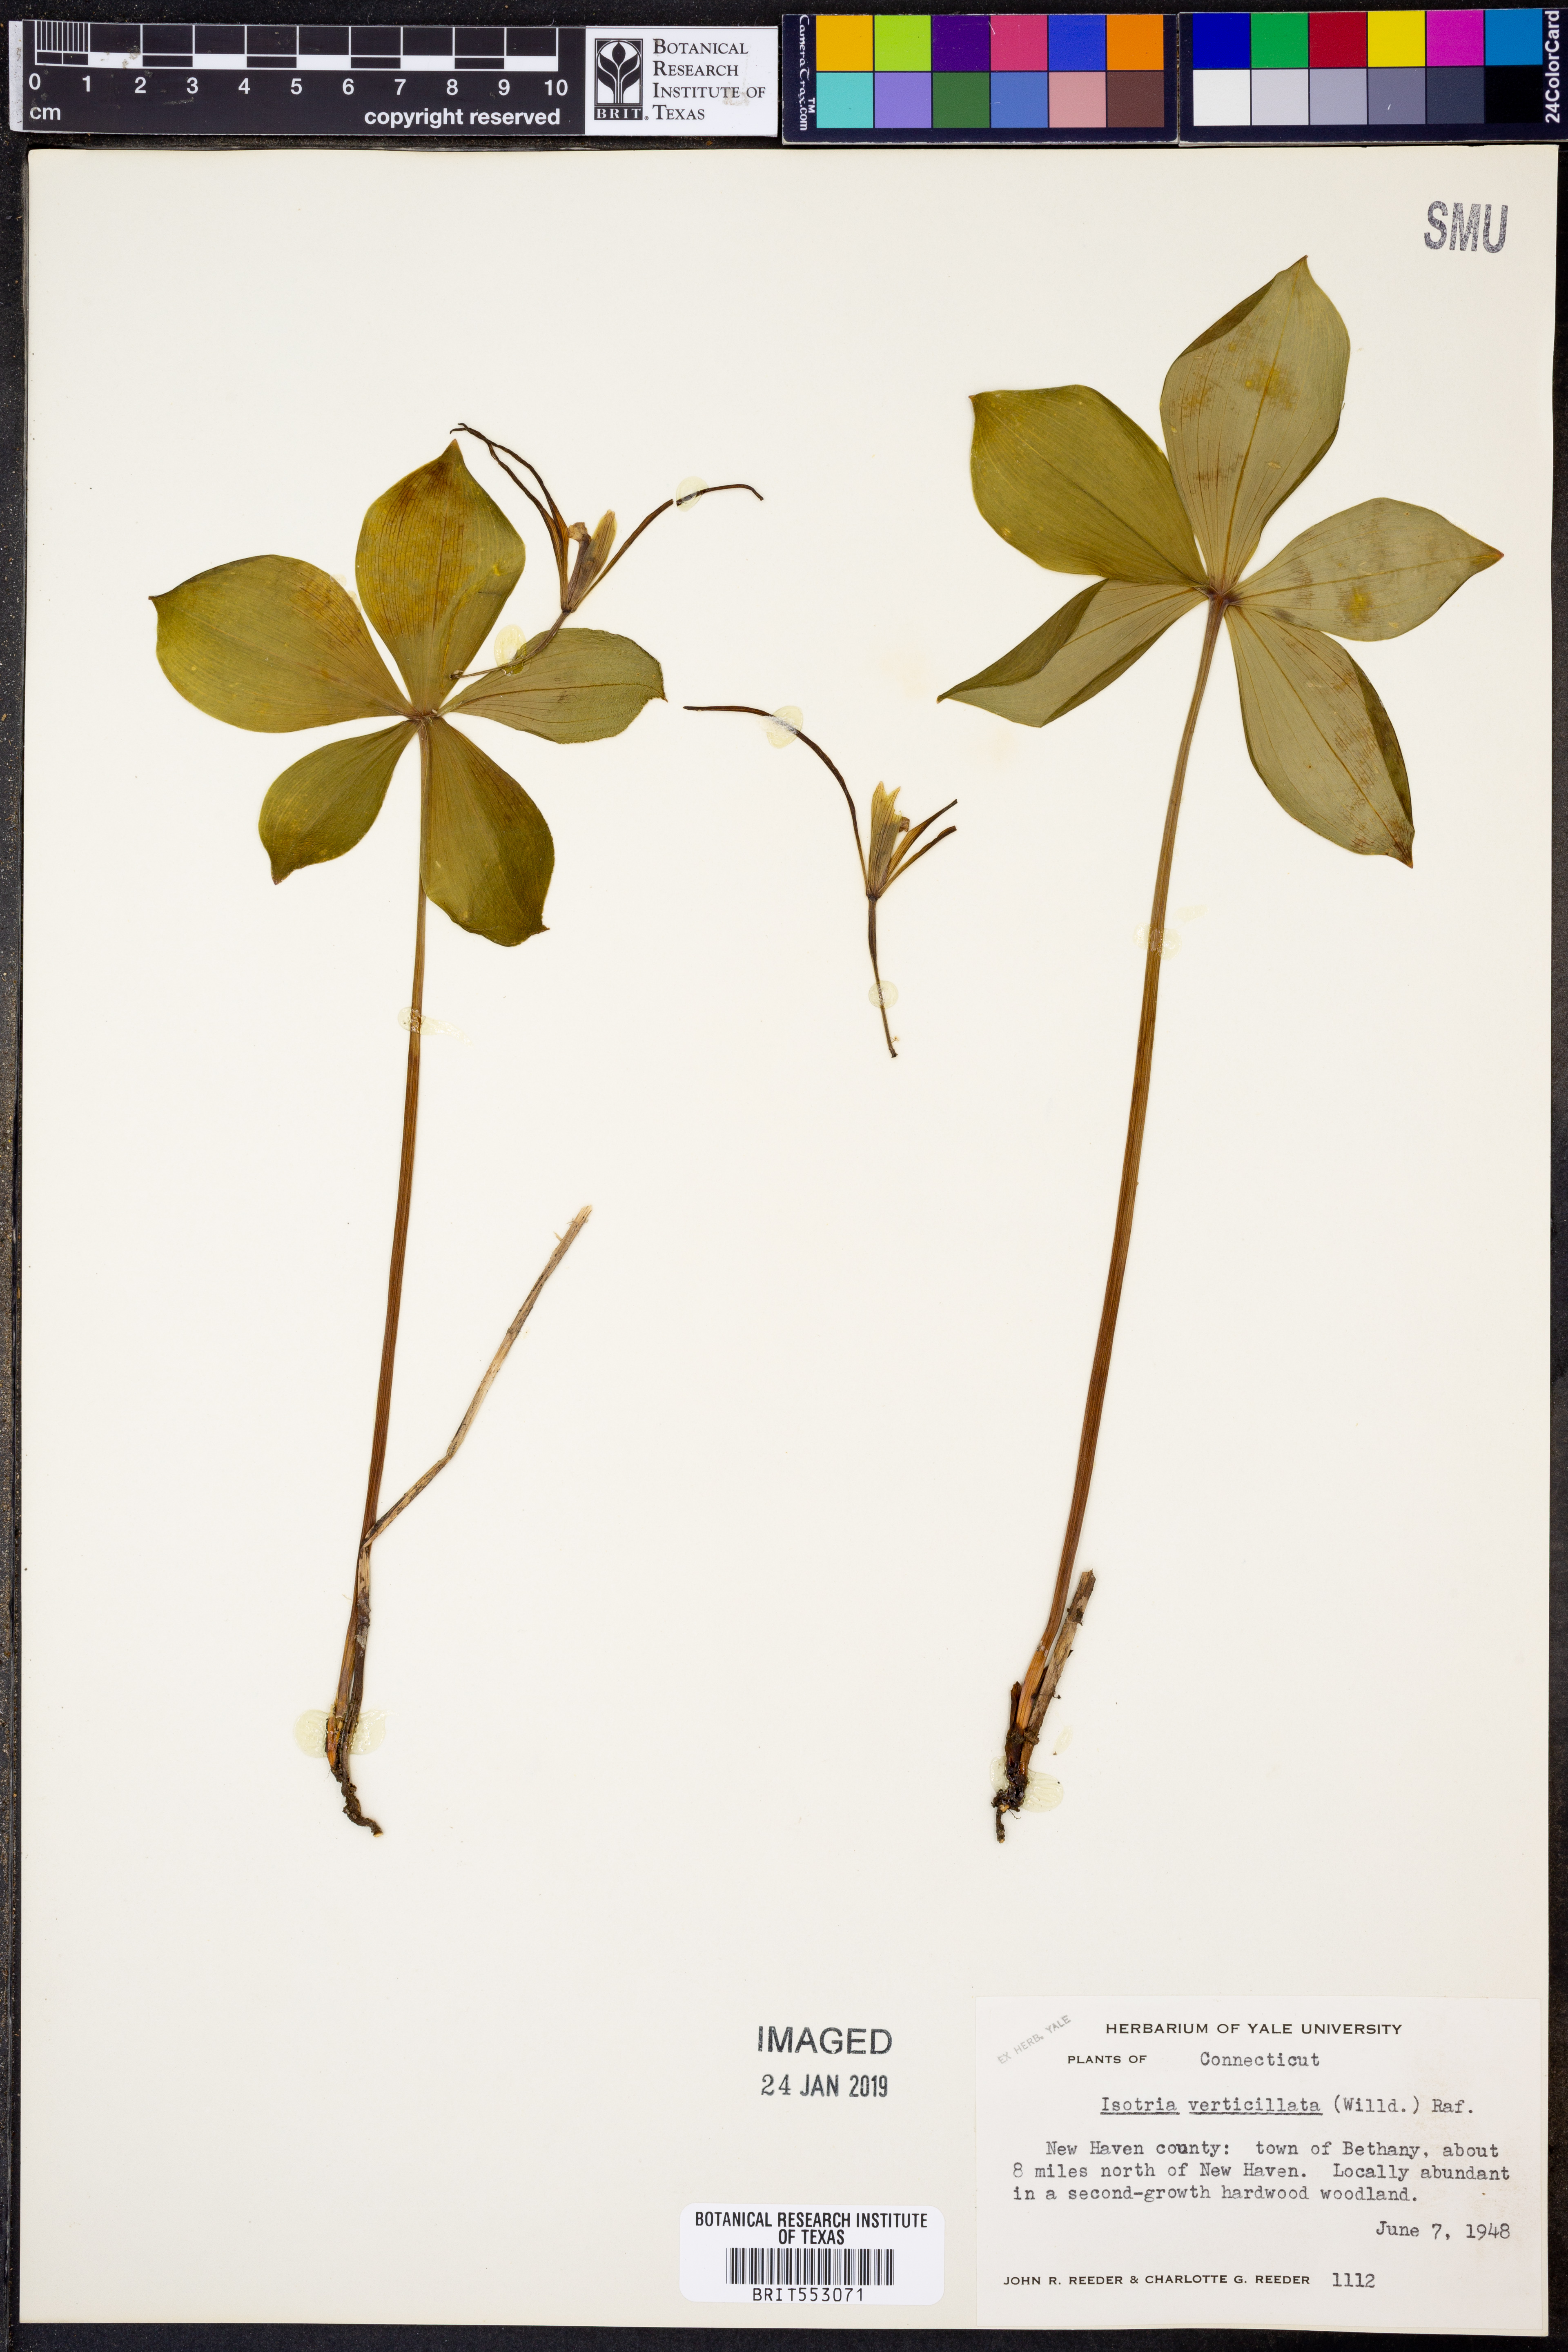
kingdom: Plantae
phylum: Tracheophyta
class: Liliopsida
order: Asparagales
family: Orchidaceae
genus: Isotria
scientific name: Isotria verticillata
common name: Large whorled pogonia
